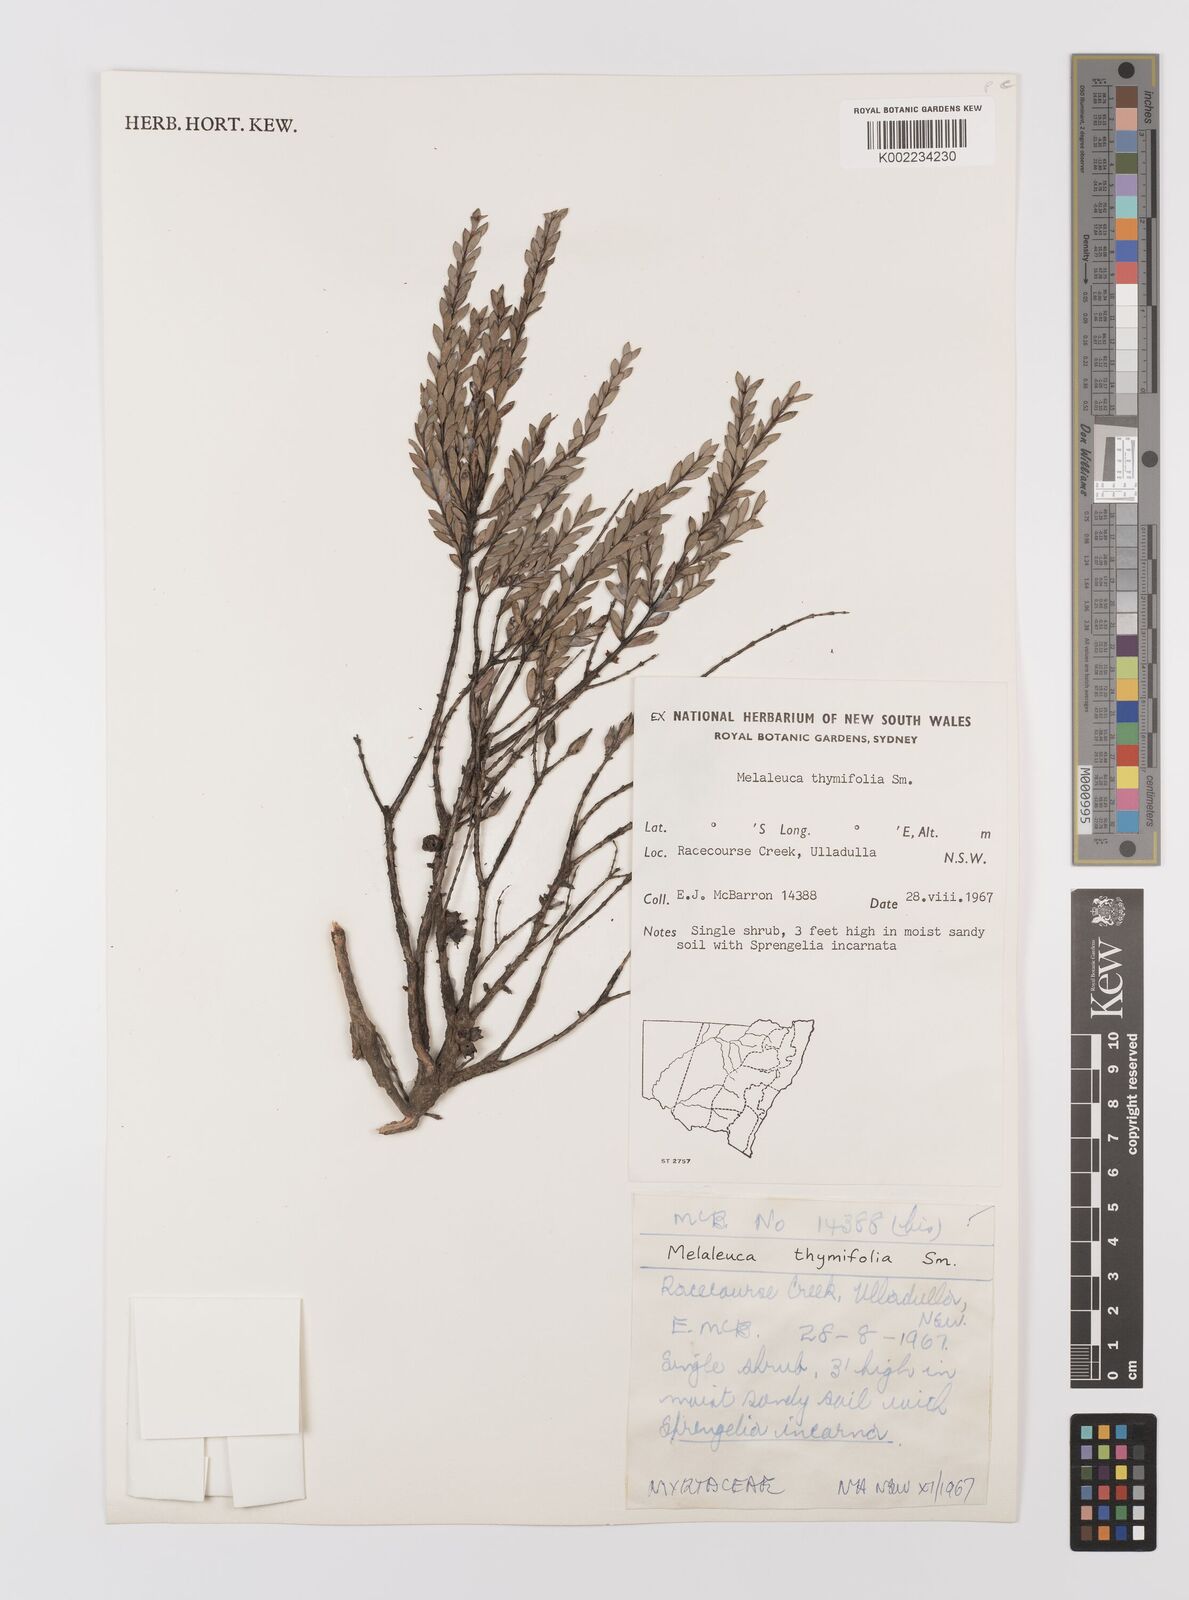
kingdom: Plantae
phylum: Tracheophyta
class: Magnoliopsida
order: Myrtales
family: Myrtaceae
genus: Melaleuca
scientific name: Melaleuca thymifolia
